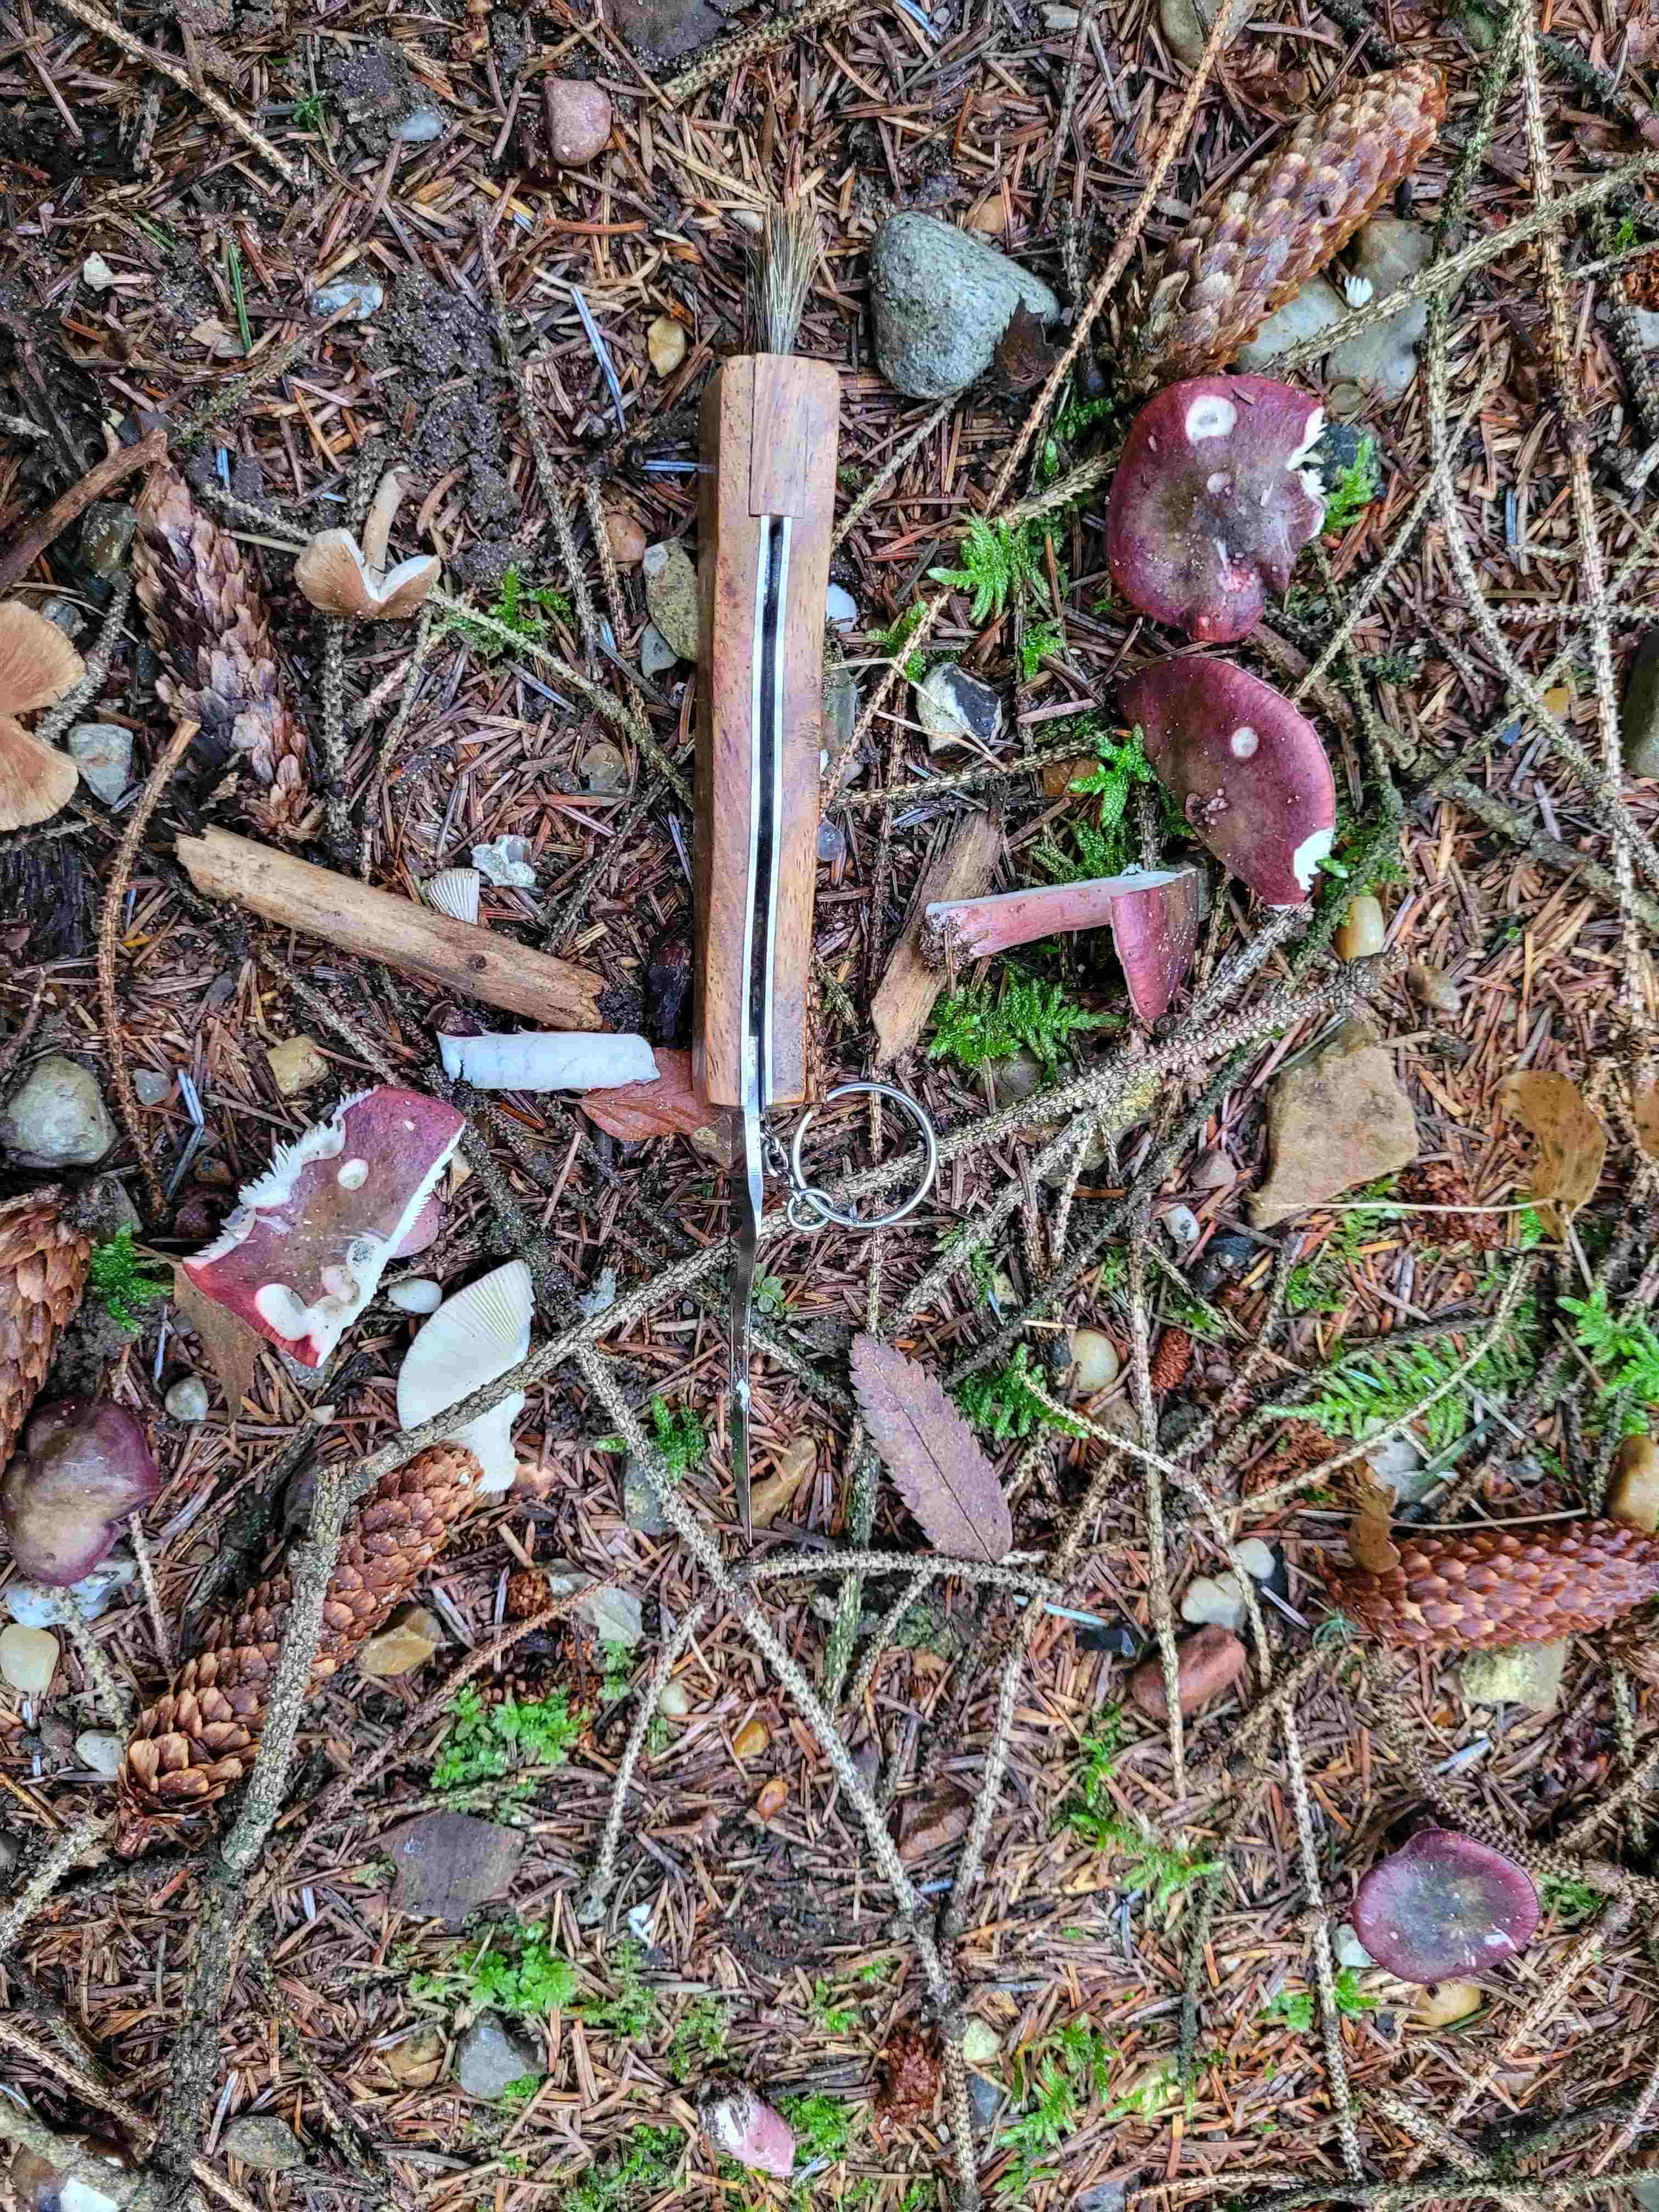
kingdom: Fungi
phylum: Basidiomycota
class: Agaricomycetes
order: Russulales
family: Russulaceae
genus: Russula
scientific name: Russula queletii
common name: Quélets skørhat
